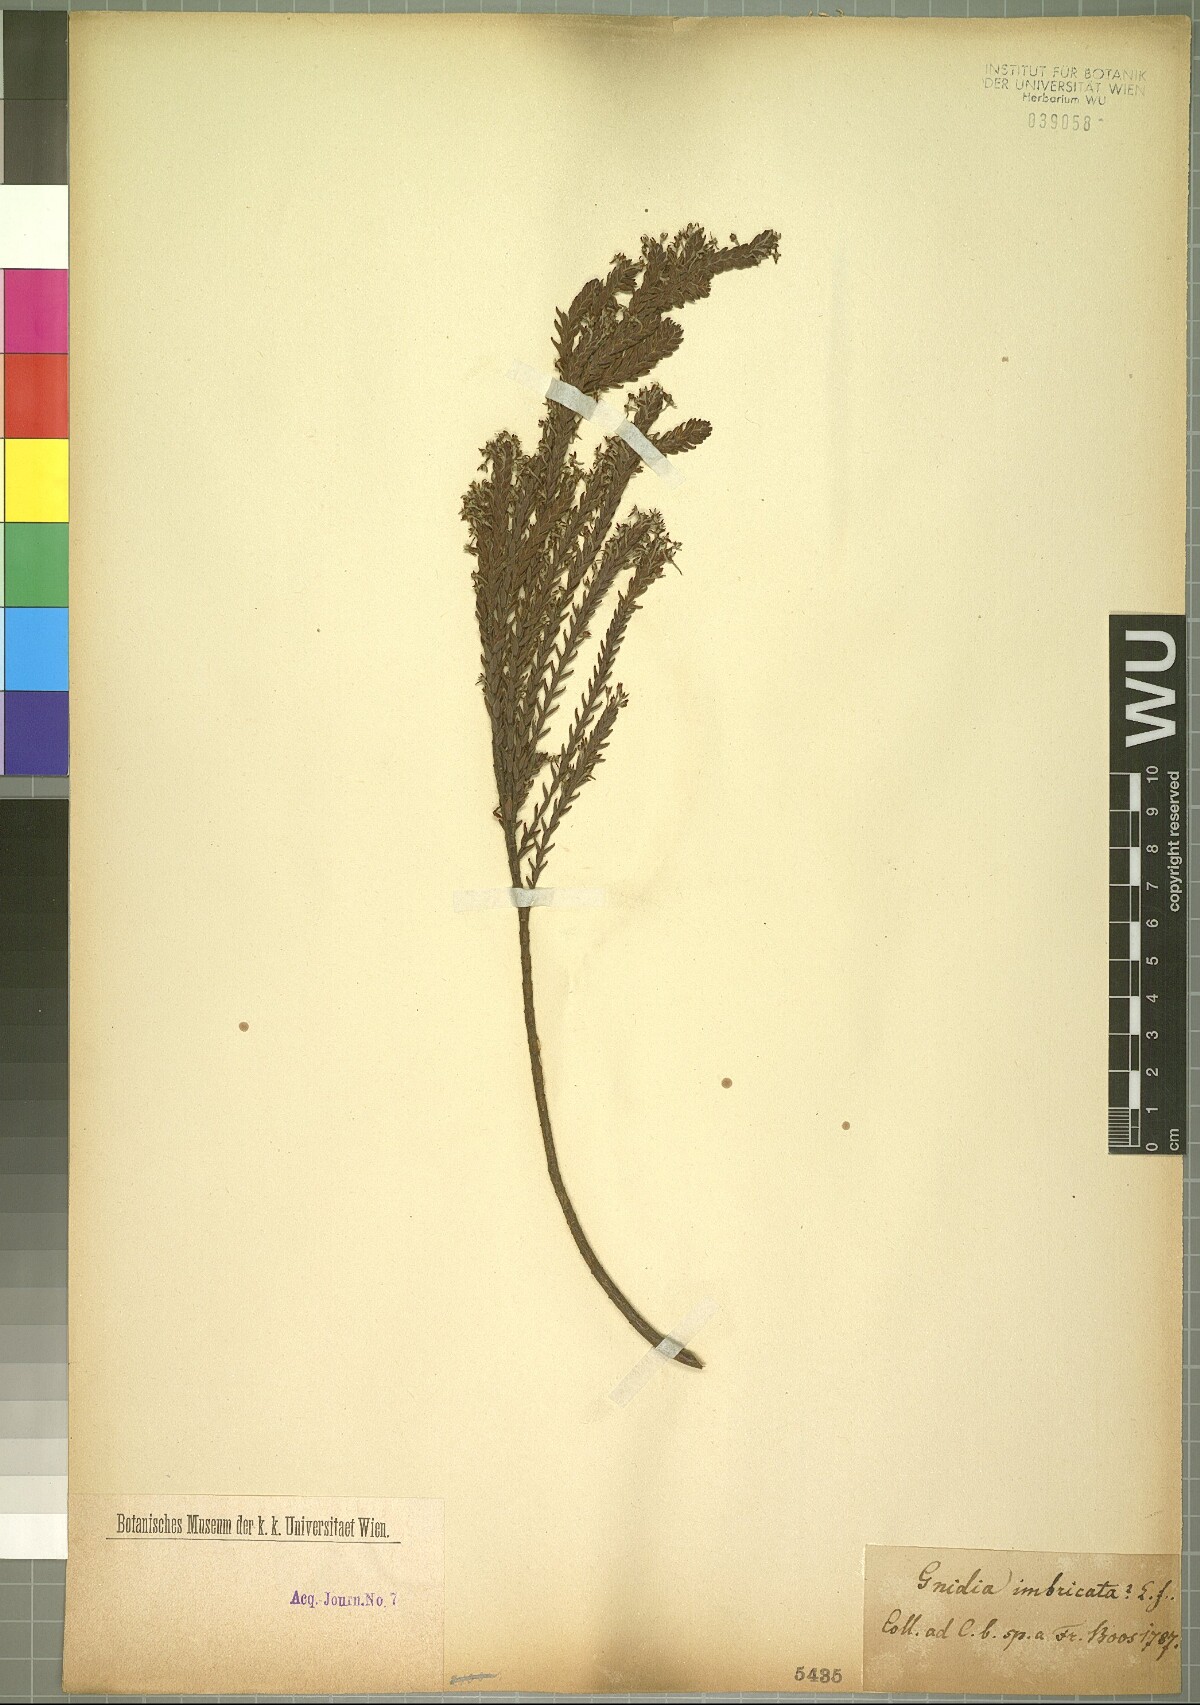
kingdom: Plantae
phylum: Tracheophyta
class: Magnoliopsida
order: Malvales
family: Thymelaeaceae
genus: Gnidia
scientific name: Gnidia imbricata
